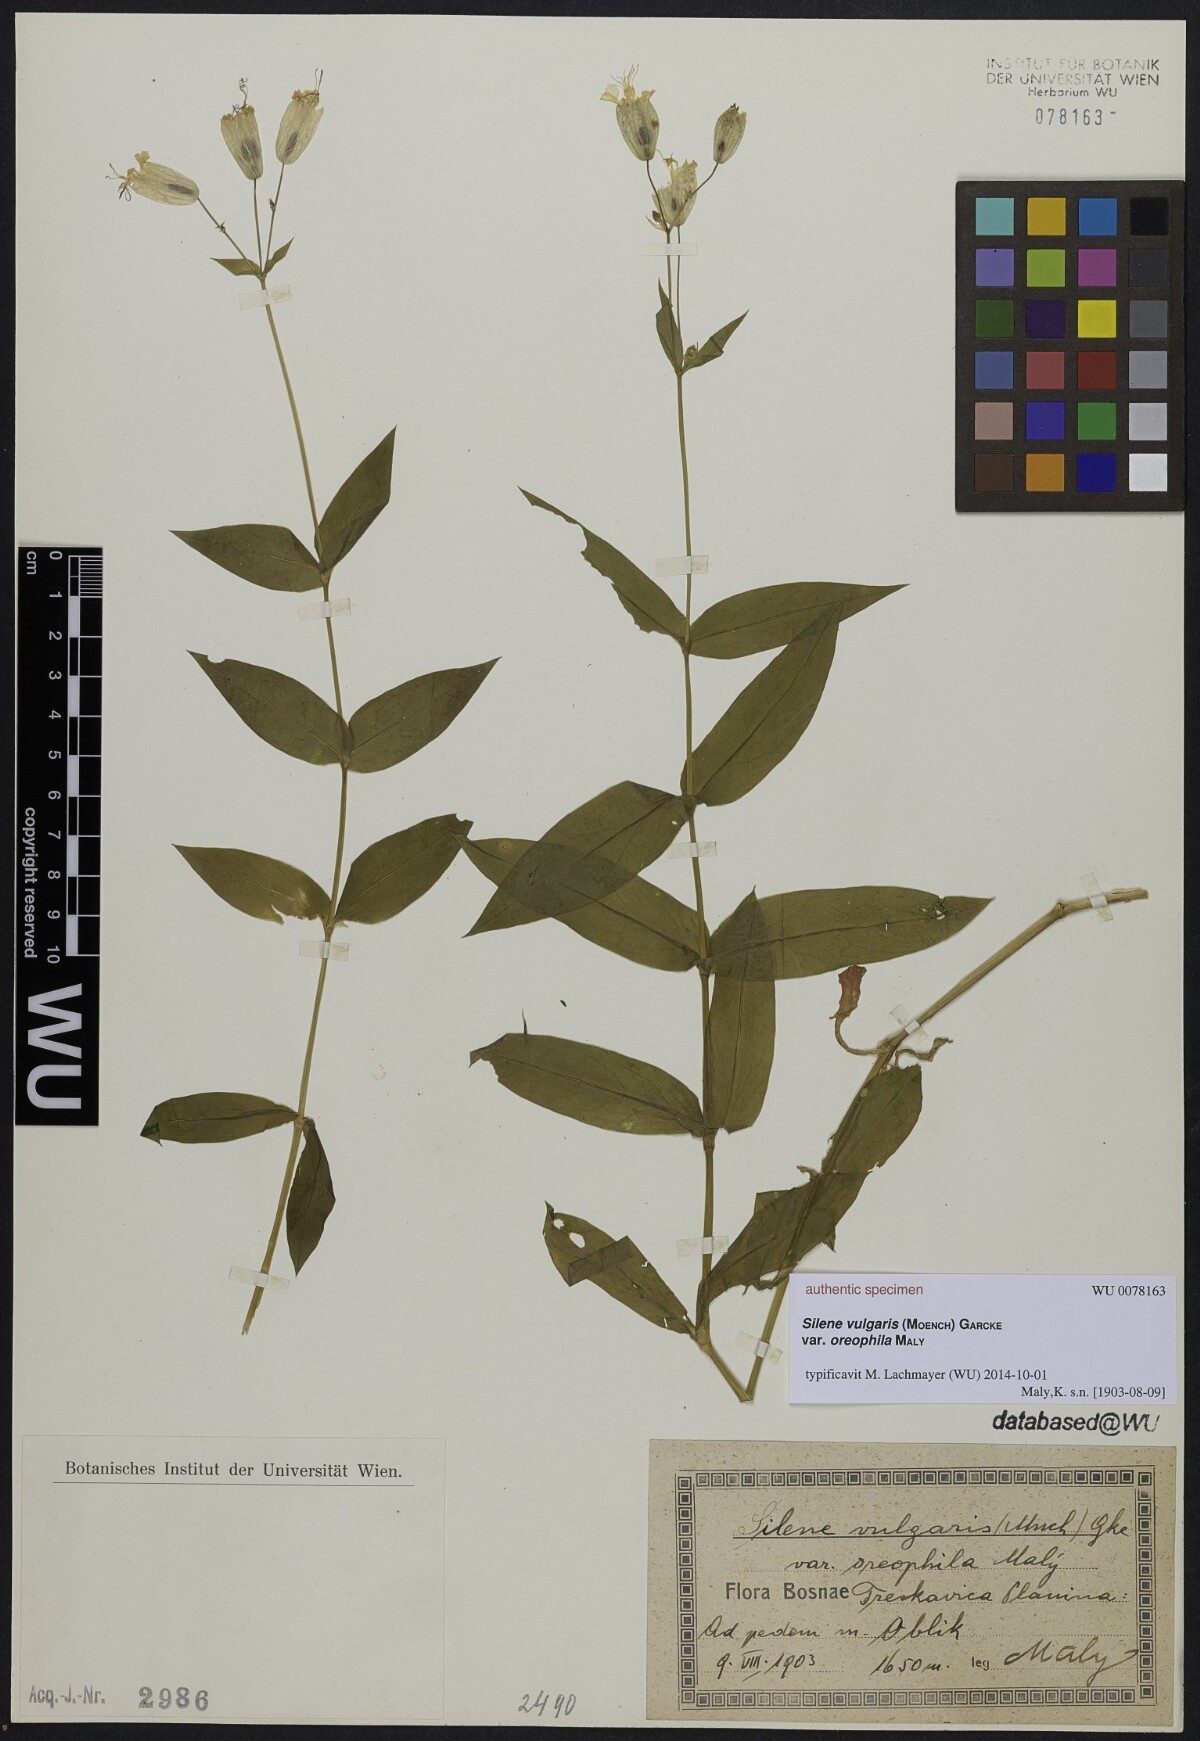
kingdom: Plantae
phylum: Tracheophyta
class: Magnoliopsida
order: Caryophyllales
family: Caryophyllaceae
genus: Silene
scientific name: Silene vulgaris
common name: Bladder campion
